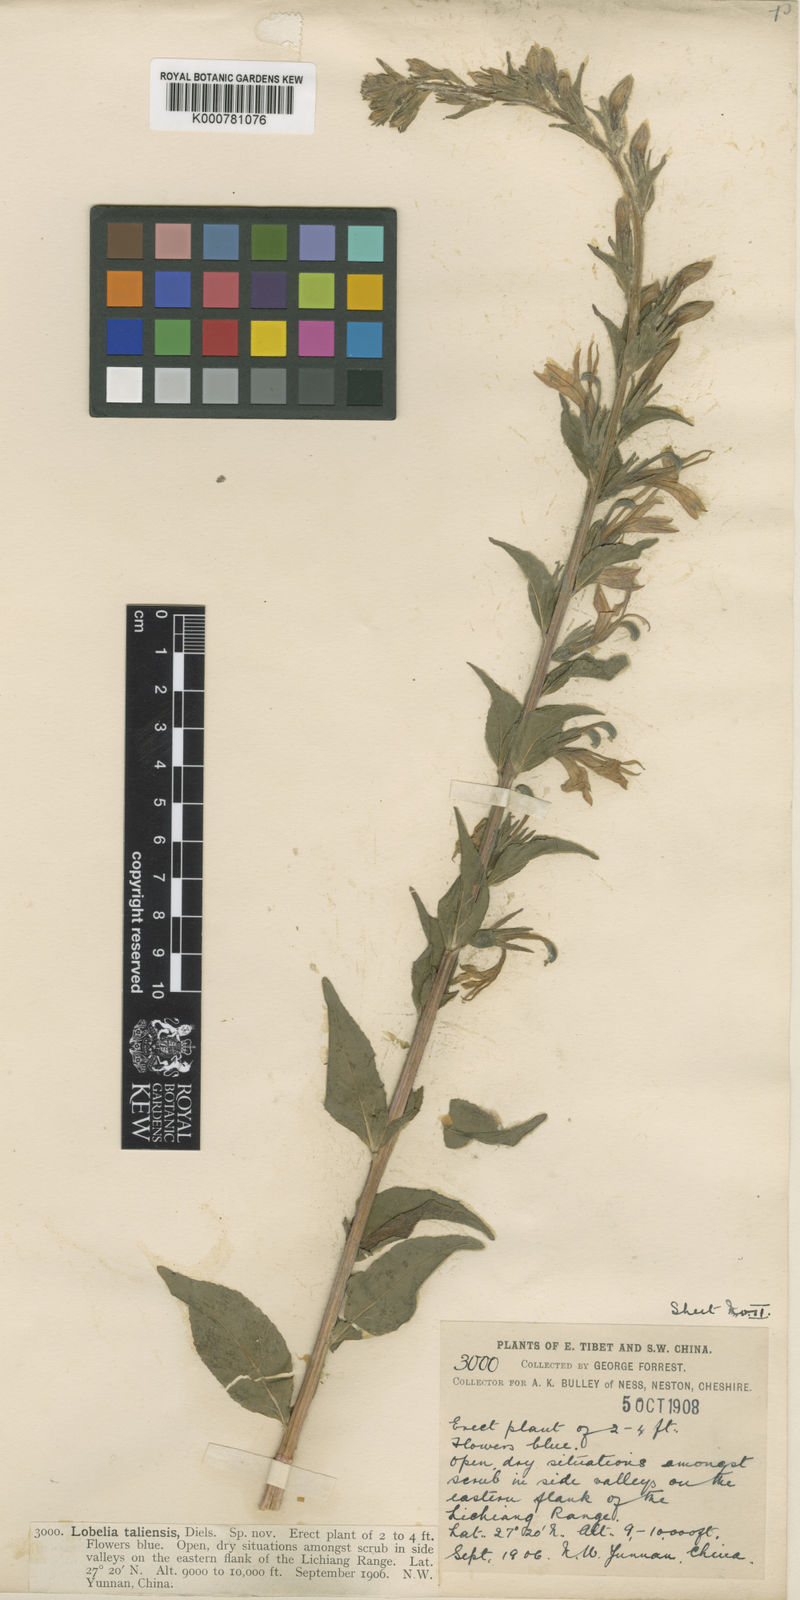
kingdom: Plantae
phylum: Tracheophyta
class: Magnoliopsida
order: Asterales
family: Campanulaceae
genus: Lobelia
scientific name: Lobelia
